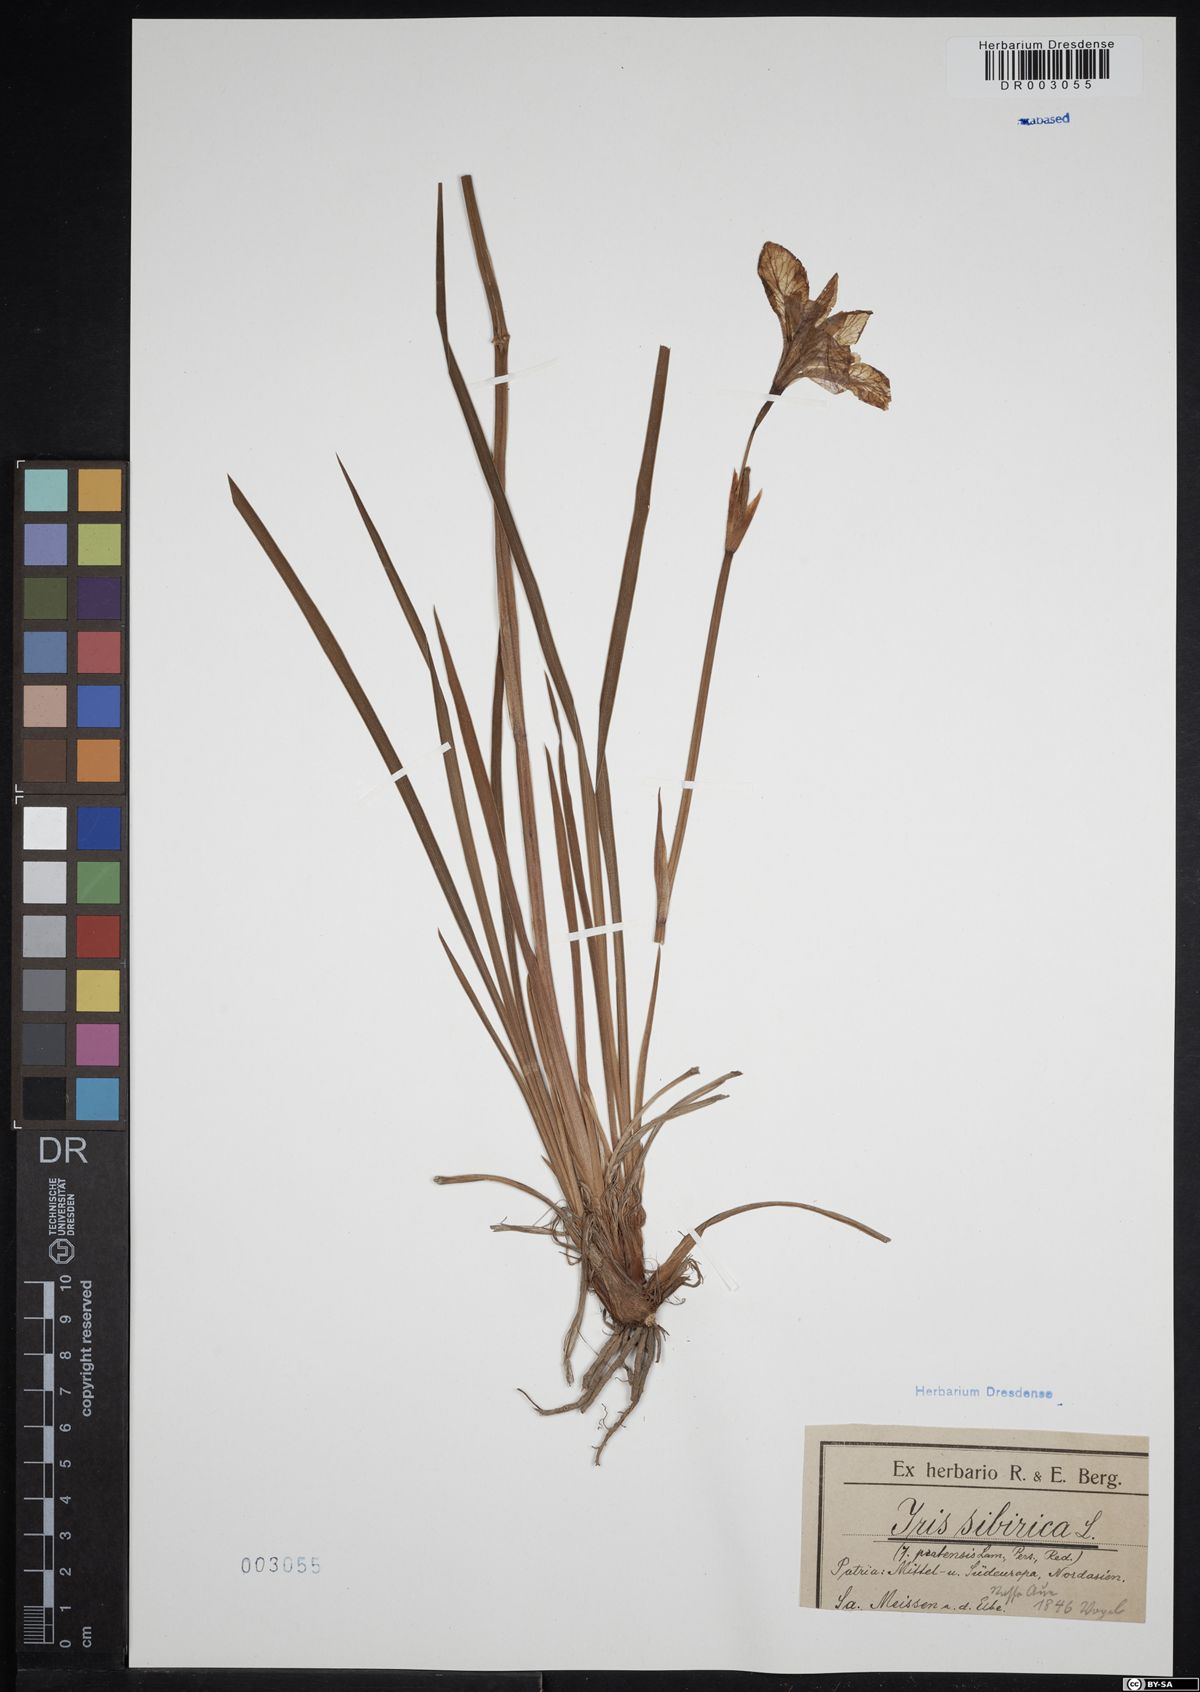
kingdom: Plantae
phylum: Tracheophyta
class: Liliopsida
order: Asparagales
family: Iridaceae
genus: Iris
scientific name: Iris sibirica
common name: Siberian iris
